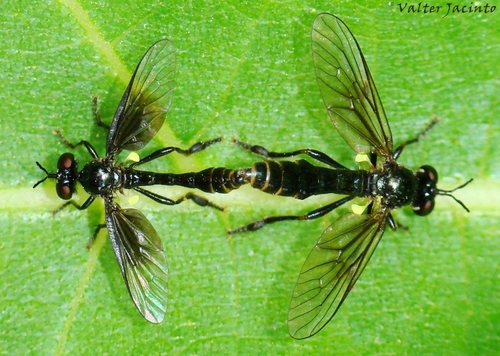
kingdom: Animalia
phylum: Arthropoda
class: Insecta
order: Diptera
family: Asilidae
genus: Dioctria
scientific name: Dioctria
